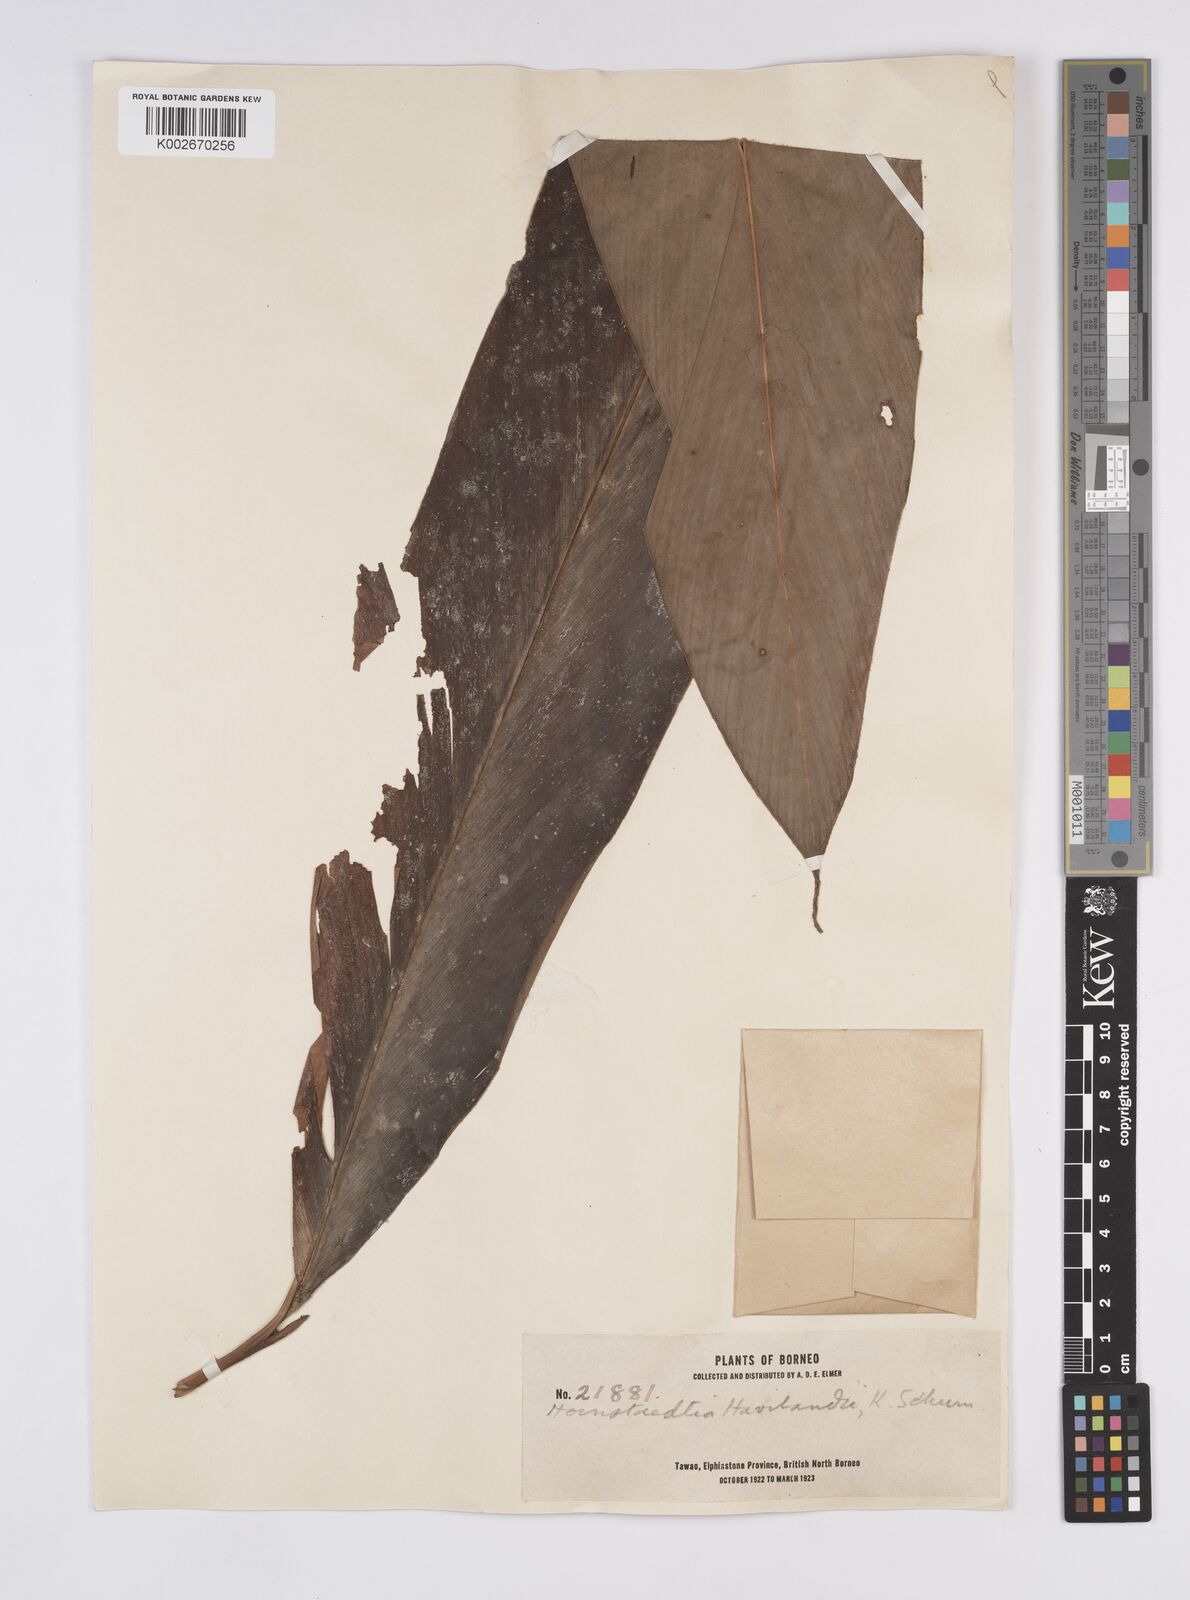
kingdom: Plantae
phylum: Tracheophyta
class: Liliopsida
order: Zingiberales
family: Zingiberaceae
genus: Hornstedtia
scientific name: Hornstedtia reticulata
